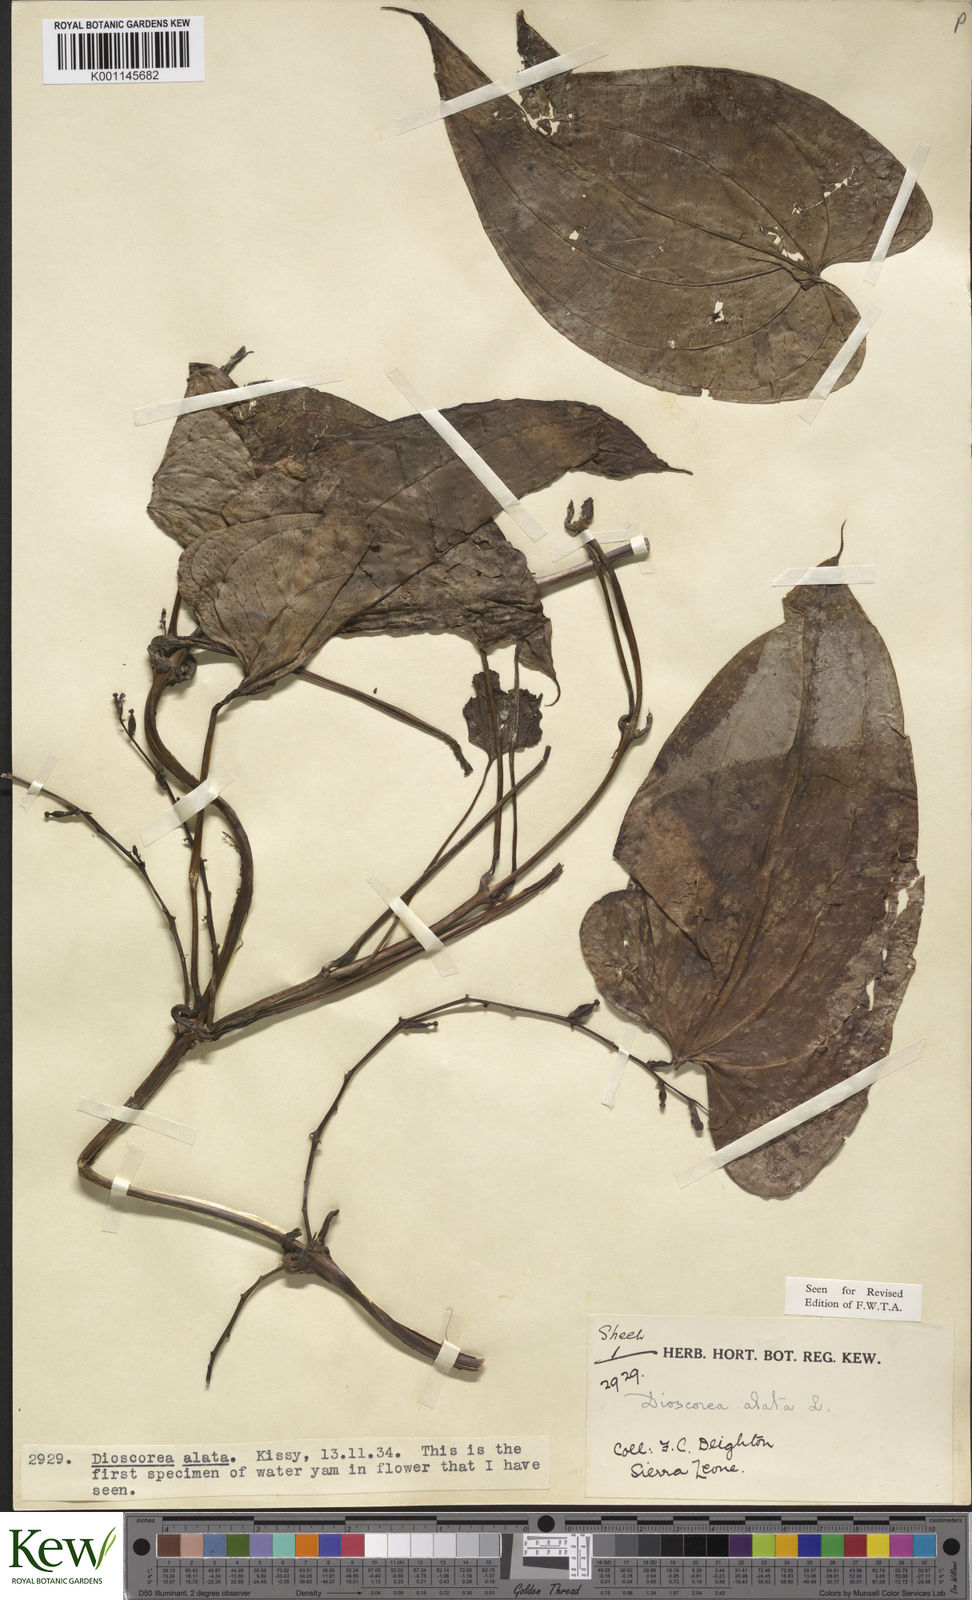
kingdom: Plantae
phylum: Tracheophyta
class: Liliopsida
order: Dioscoreales
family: Dioscoreaceae
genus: Dioscorea
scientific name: Dioscorea alata
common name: Water yam
